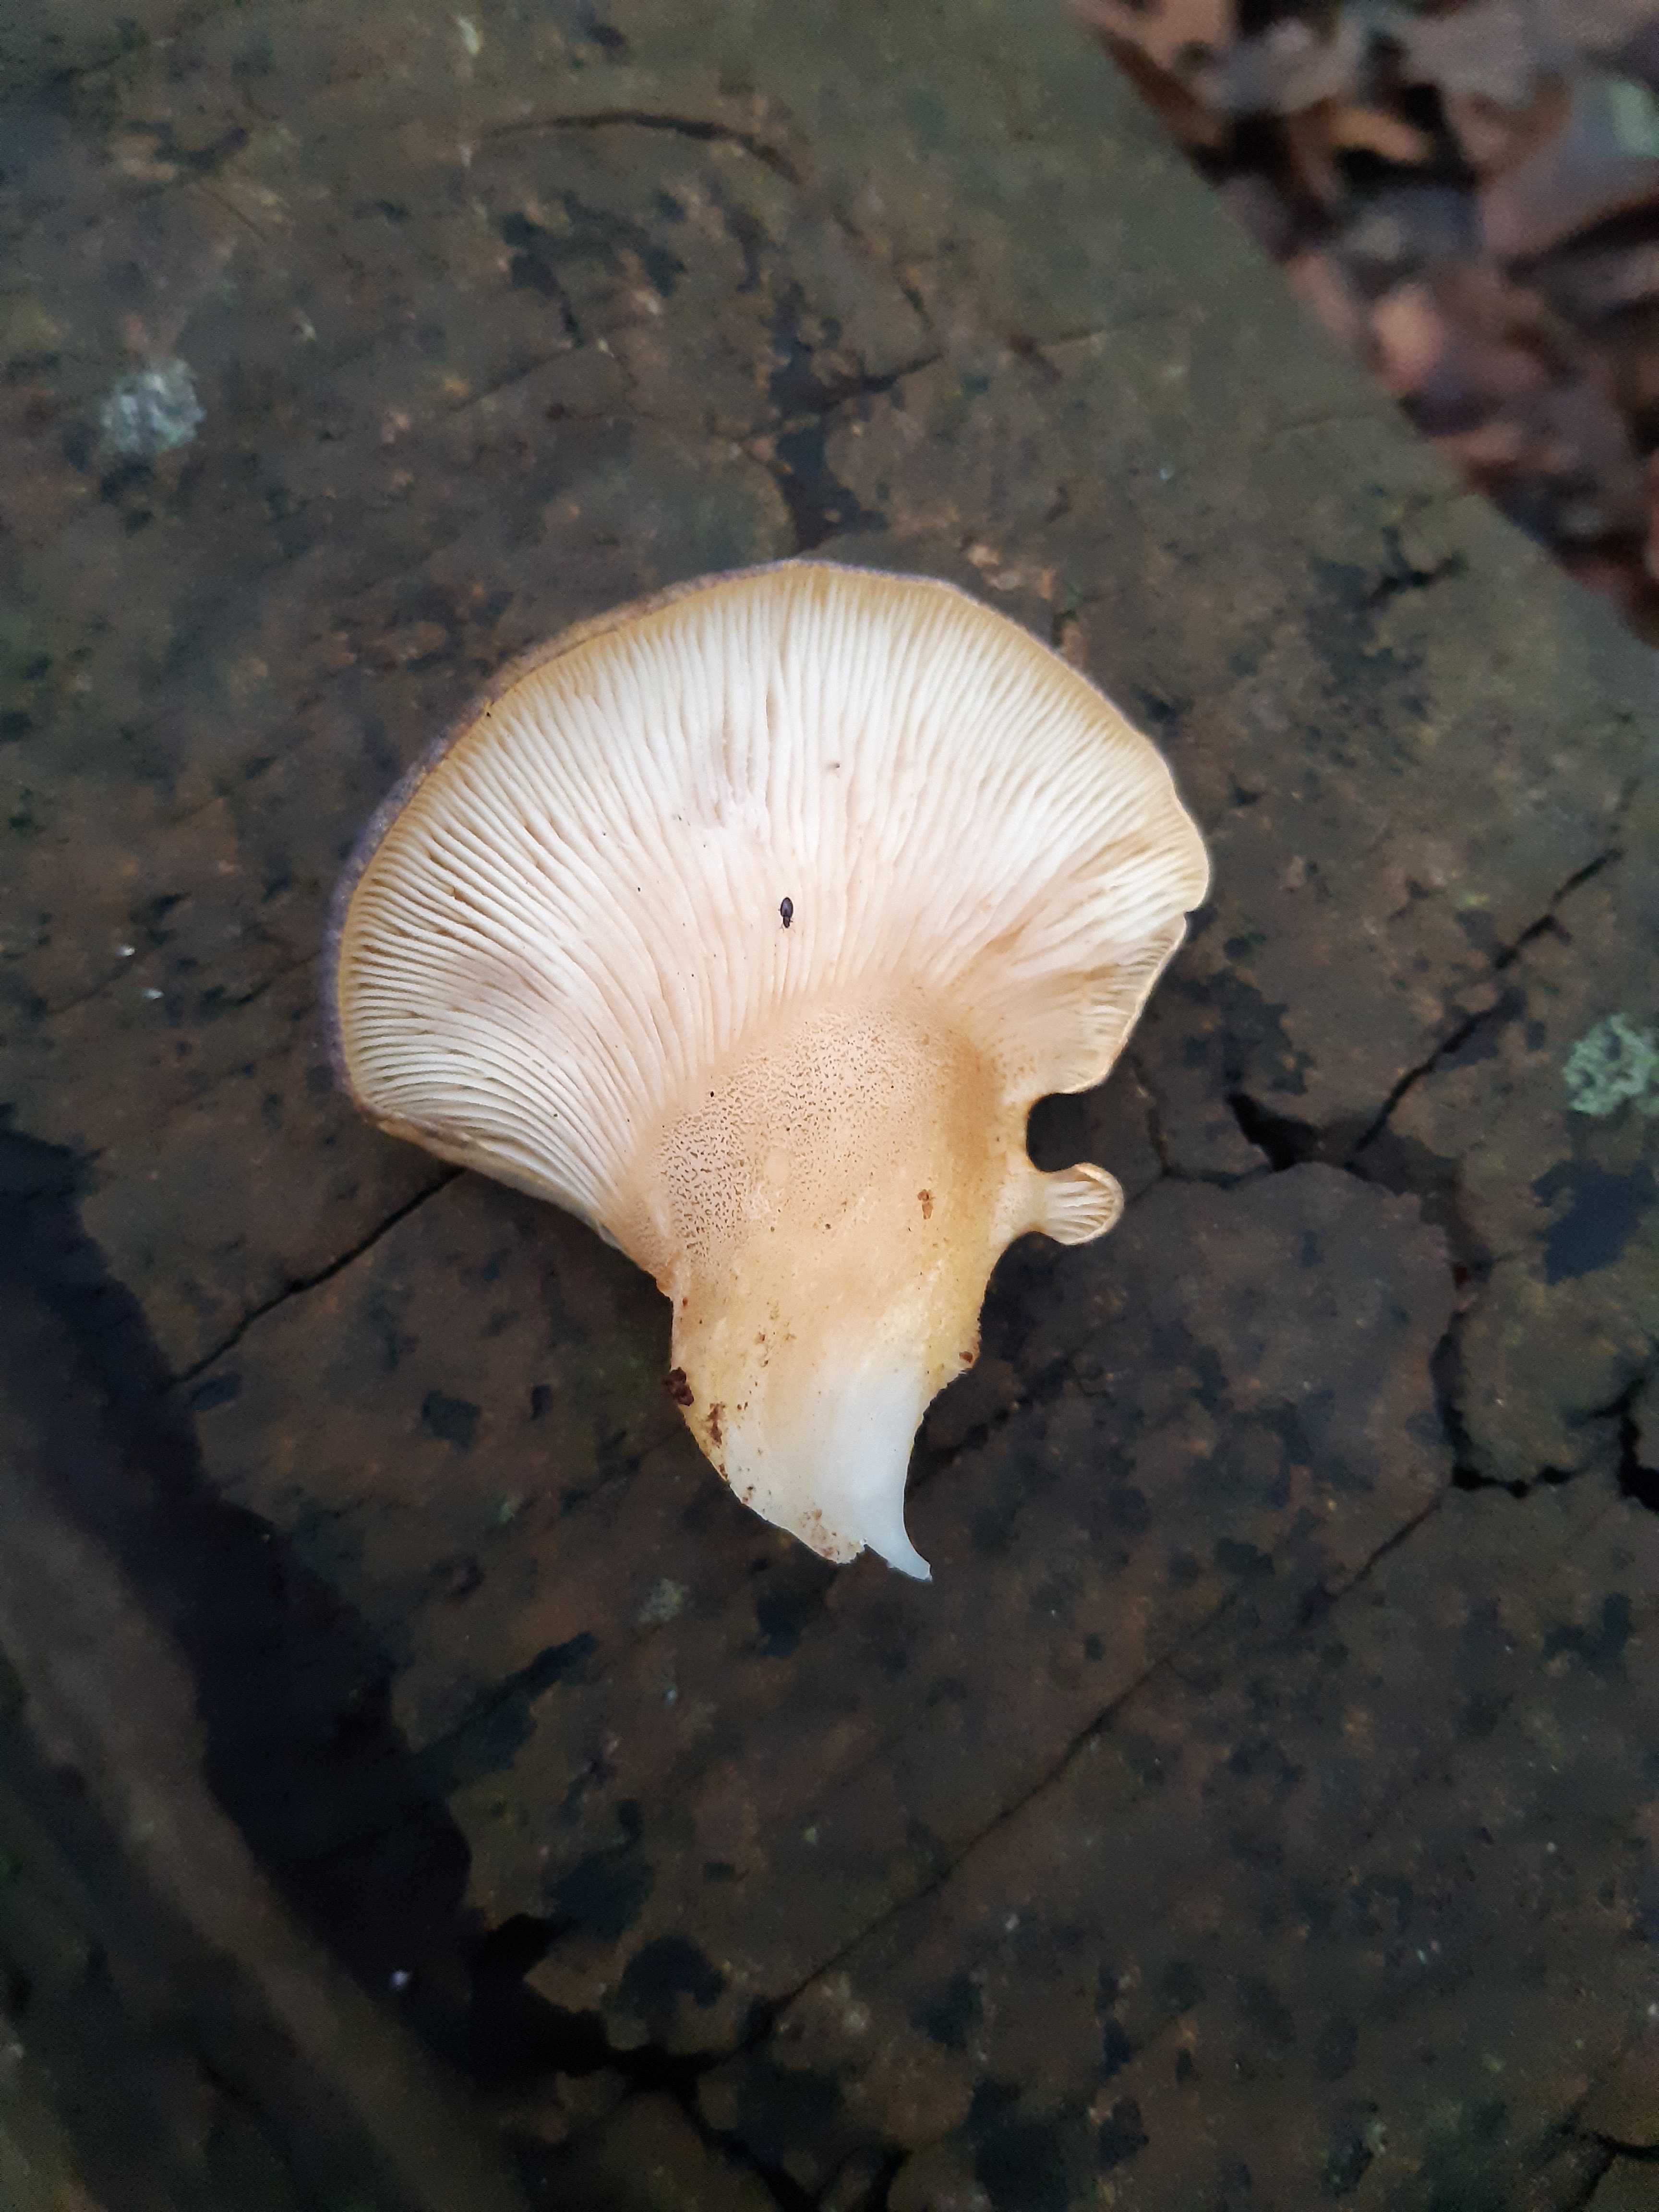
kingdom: Fungi
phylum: Basidiomycota
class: Agaricomycetes
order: Agaricales
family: Sarcomyxaceae
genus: Sarcomyxa
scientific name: Sarcomyxa serotina
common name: gummihat
